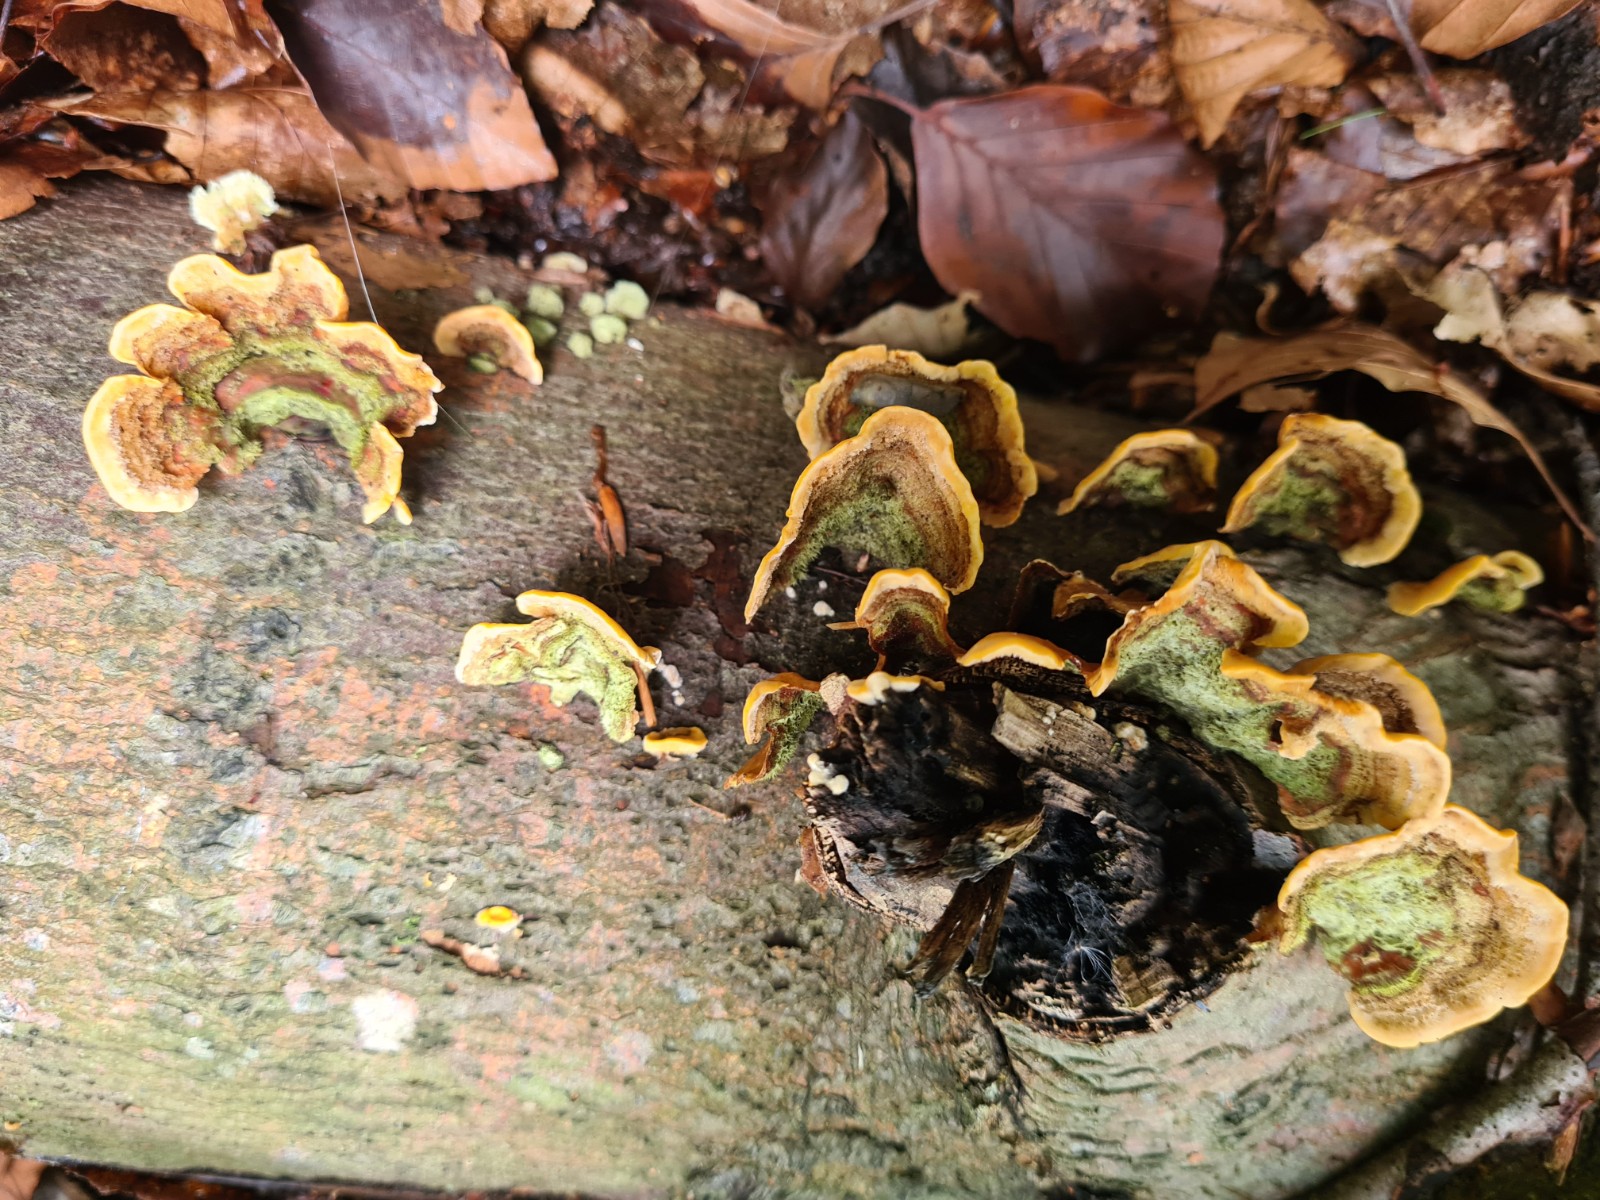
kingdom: Fungi
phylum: Basidiomycota
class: Agaricomycetes
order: Russulales
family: Stereaceae
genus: Stereum
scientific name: Stereum
